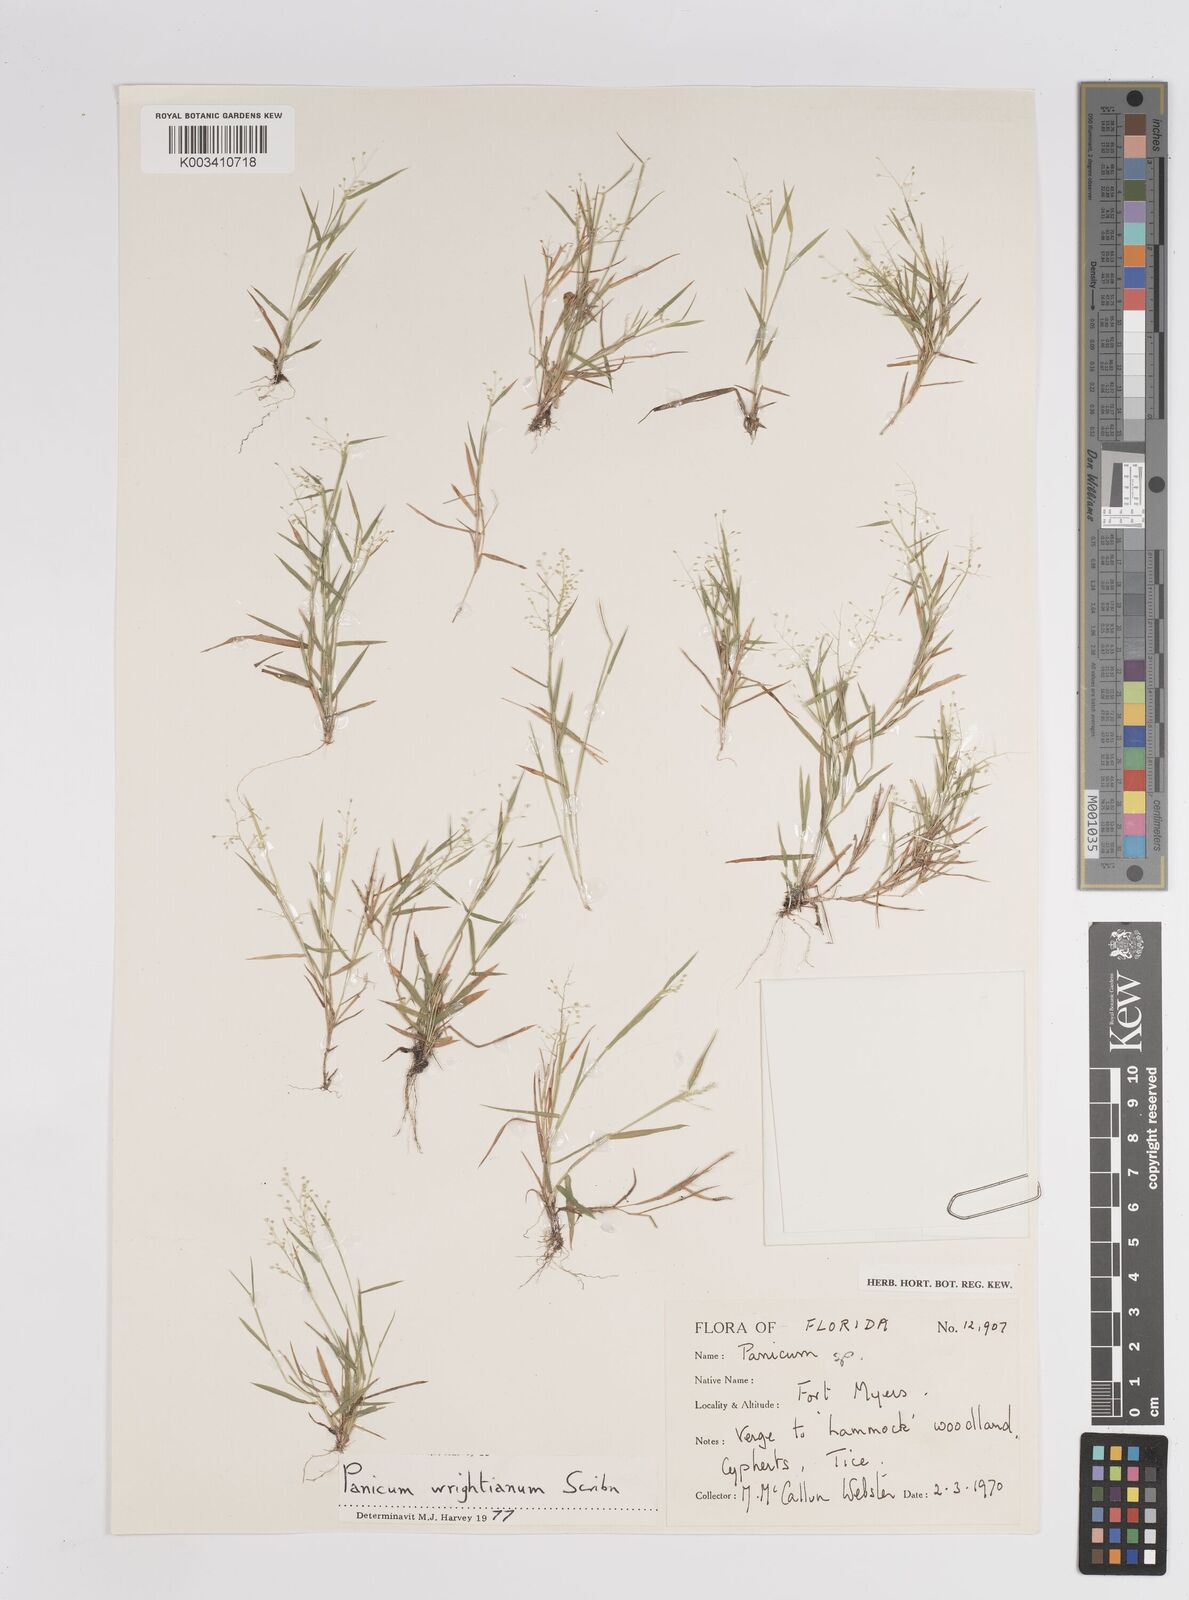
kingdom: Plantae
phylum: Tracheophyta
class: Liliopsida
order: Poales
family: Poaceae
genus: Dichanthelium
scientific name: Dichanthelium wrightianum
